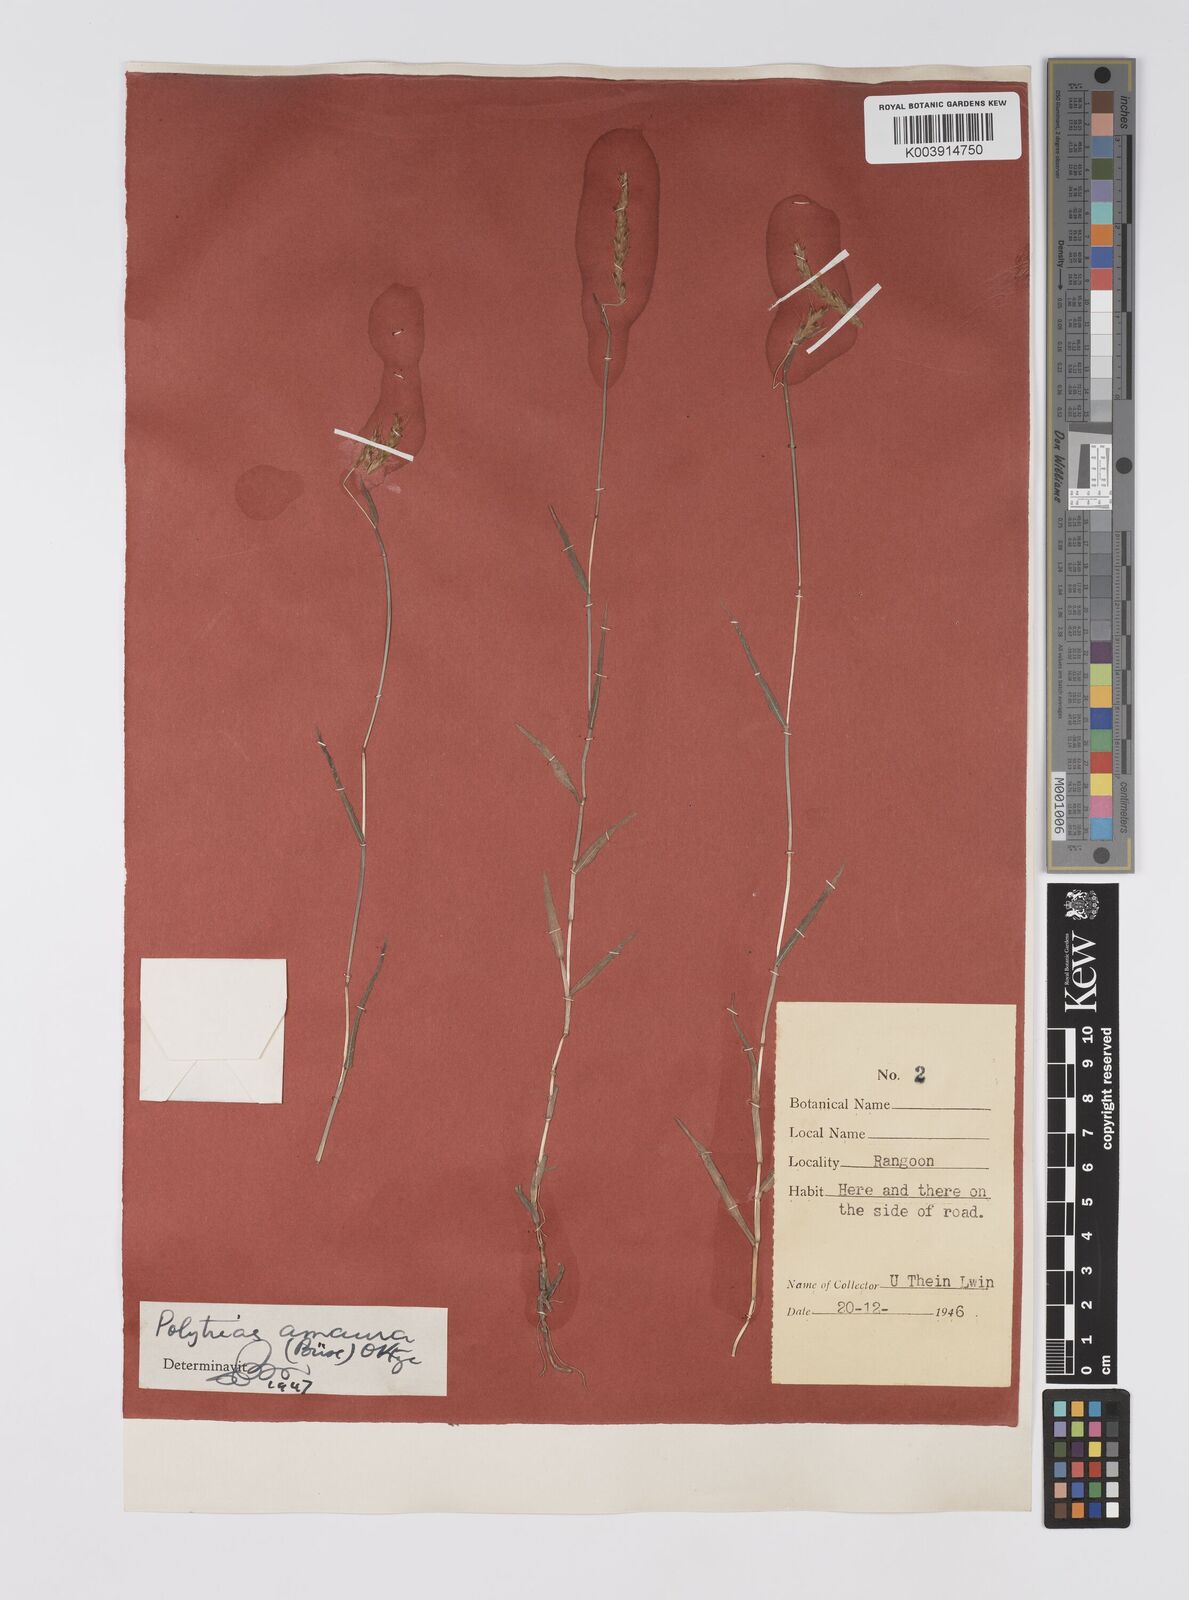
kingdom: Plantae
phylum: Tracheophyta
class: Liliopsida
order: Poales
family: Poaceae
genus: Polytrias
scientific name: Polytrias indica
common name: Indian murainagrass
